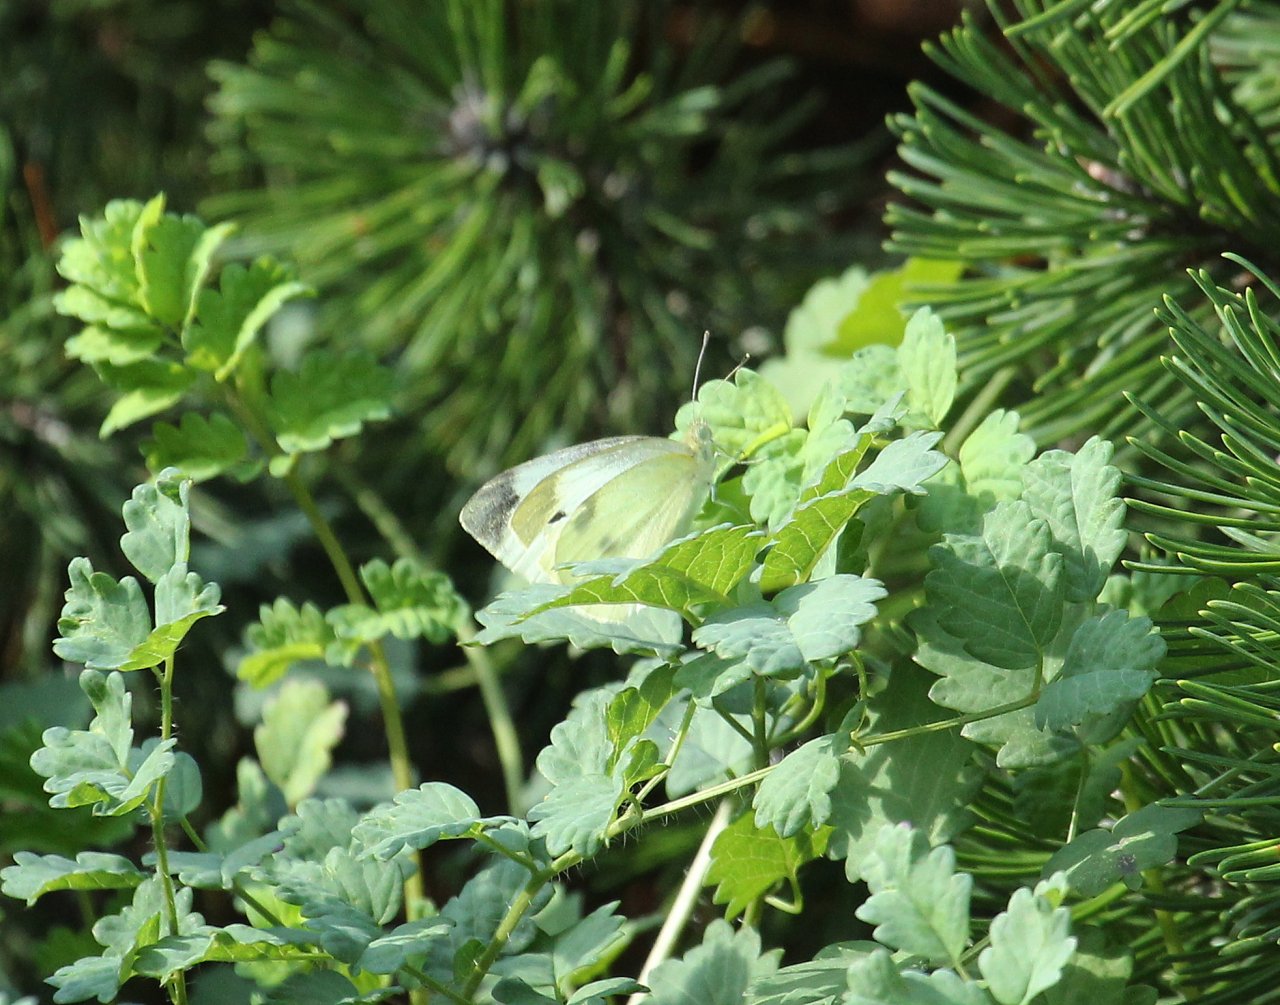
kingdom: Animalia
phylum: Arthropoda
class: Insecta
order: Lepidoptera
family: Pieridae
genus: Pieris
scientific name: Pieris rapae
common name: Cabbage White
